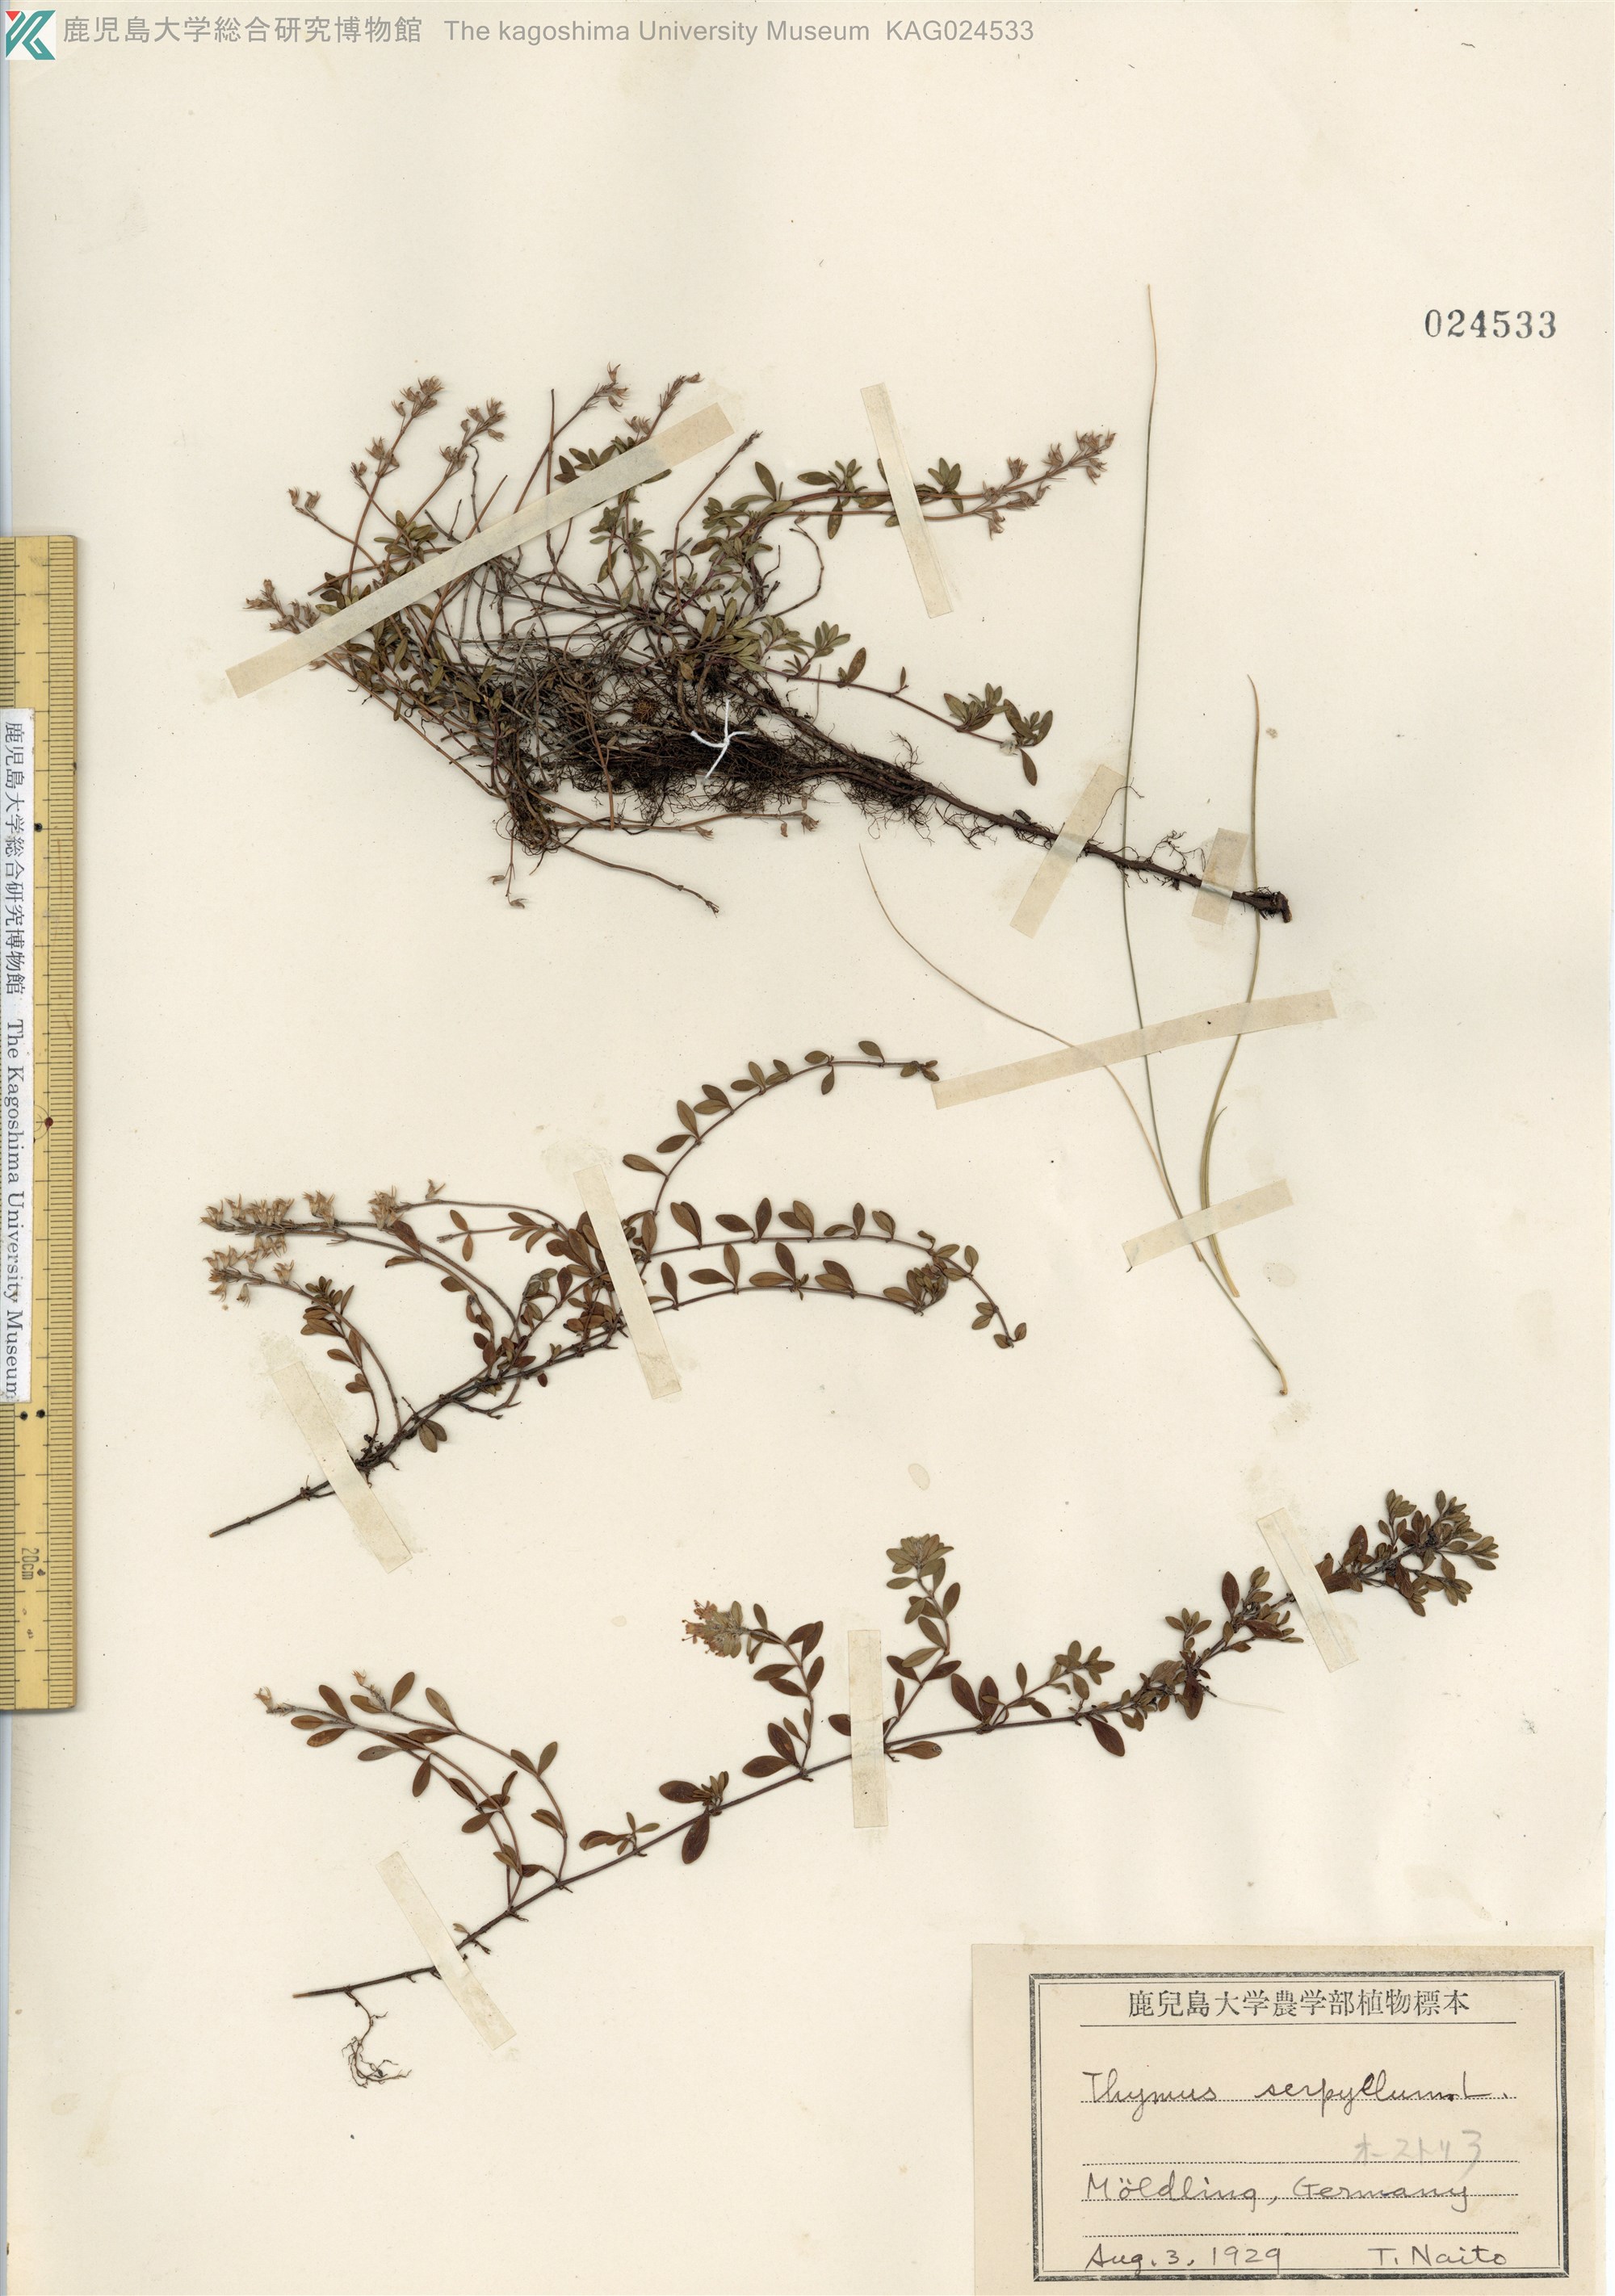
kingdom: Plantae
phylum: Tracheophyta
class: Magnoliopsida
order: Lamiales
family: Lamiaceae
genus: Thymus
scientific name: Thymus quinquecostatus
